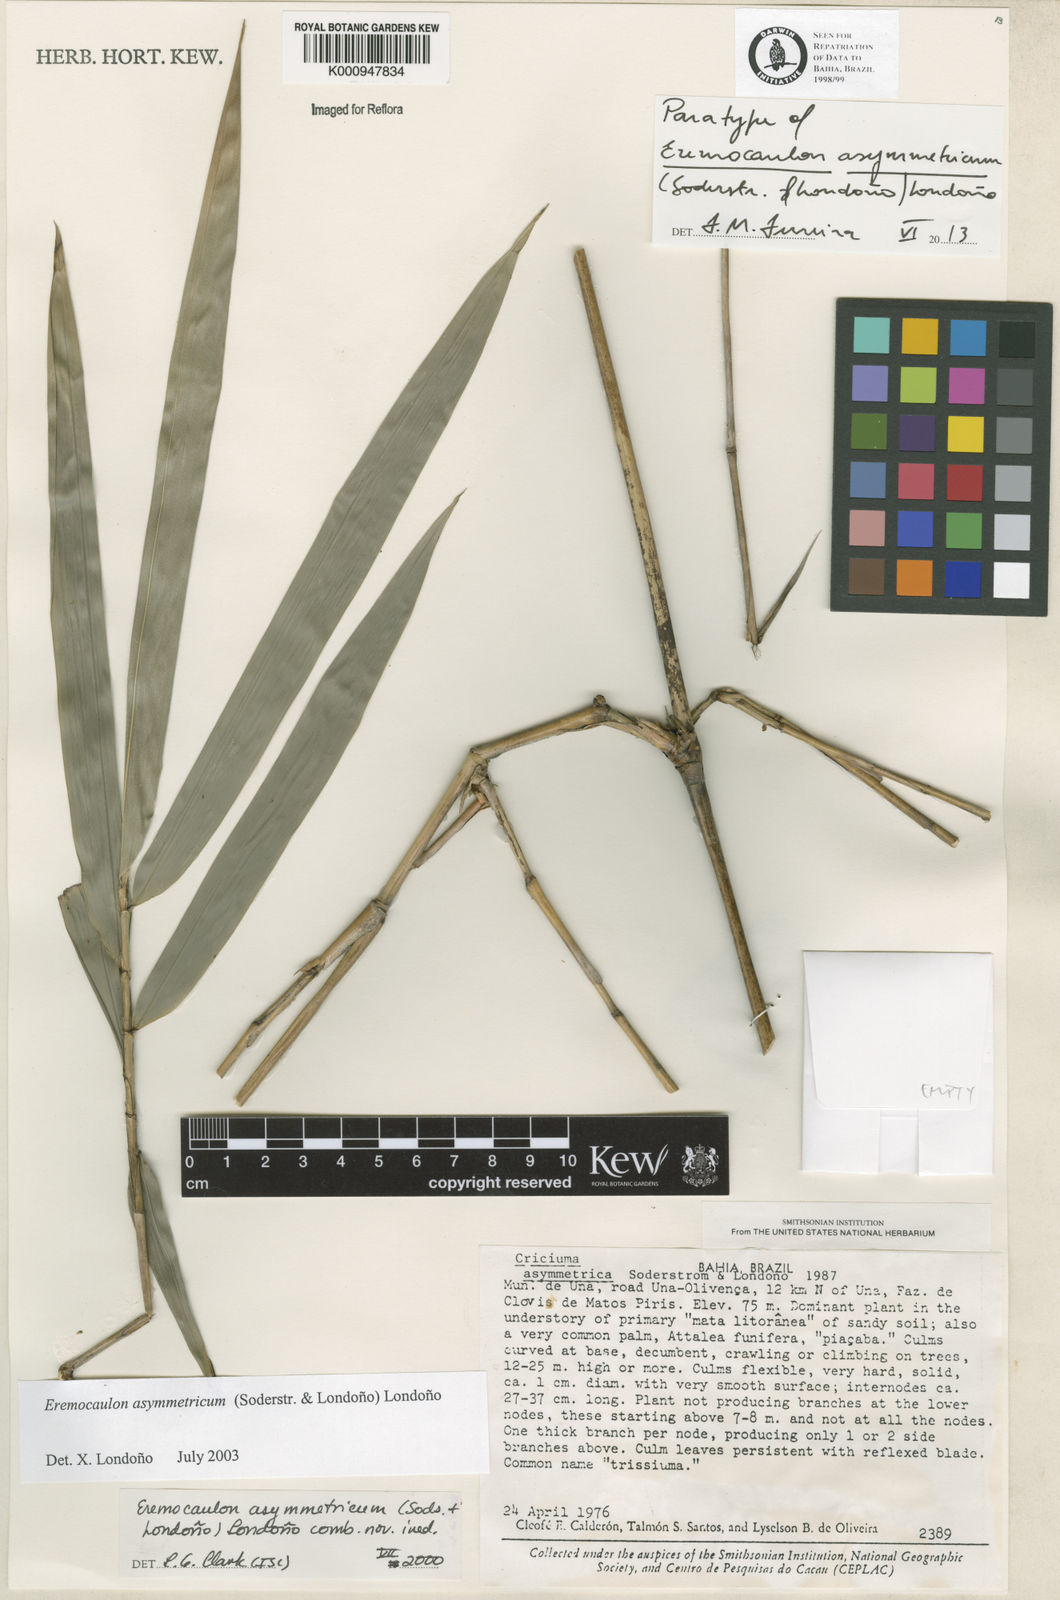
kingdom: Plantae
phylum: Tracheophyta
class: Liliopsida
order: Poales
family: Poaceae
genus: Eremocaulon
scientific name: Eremocaulon
